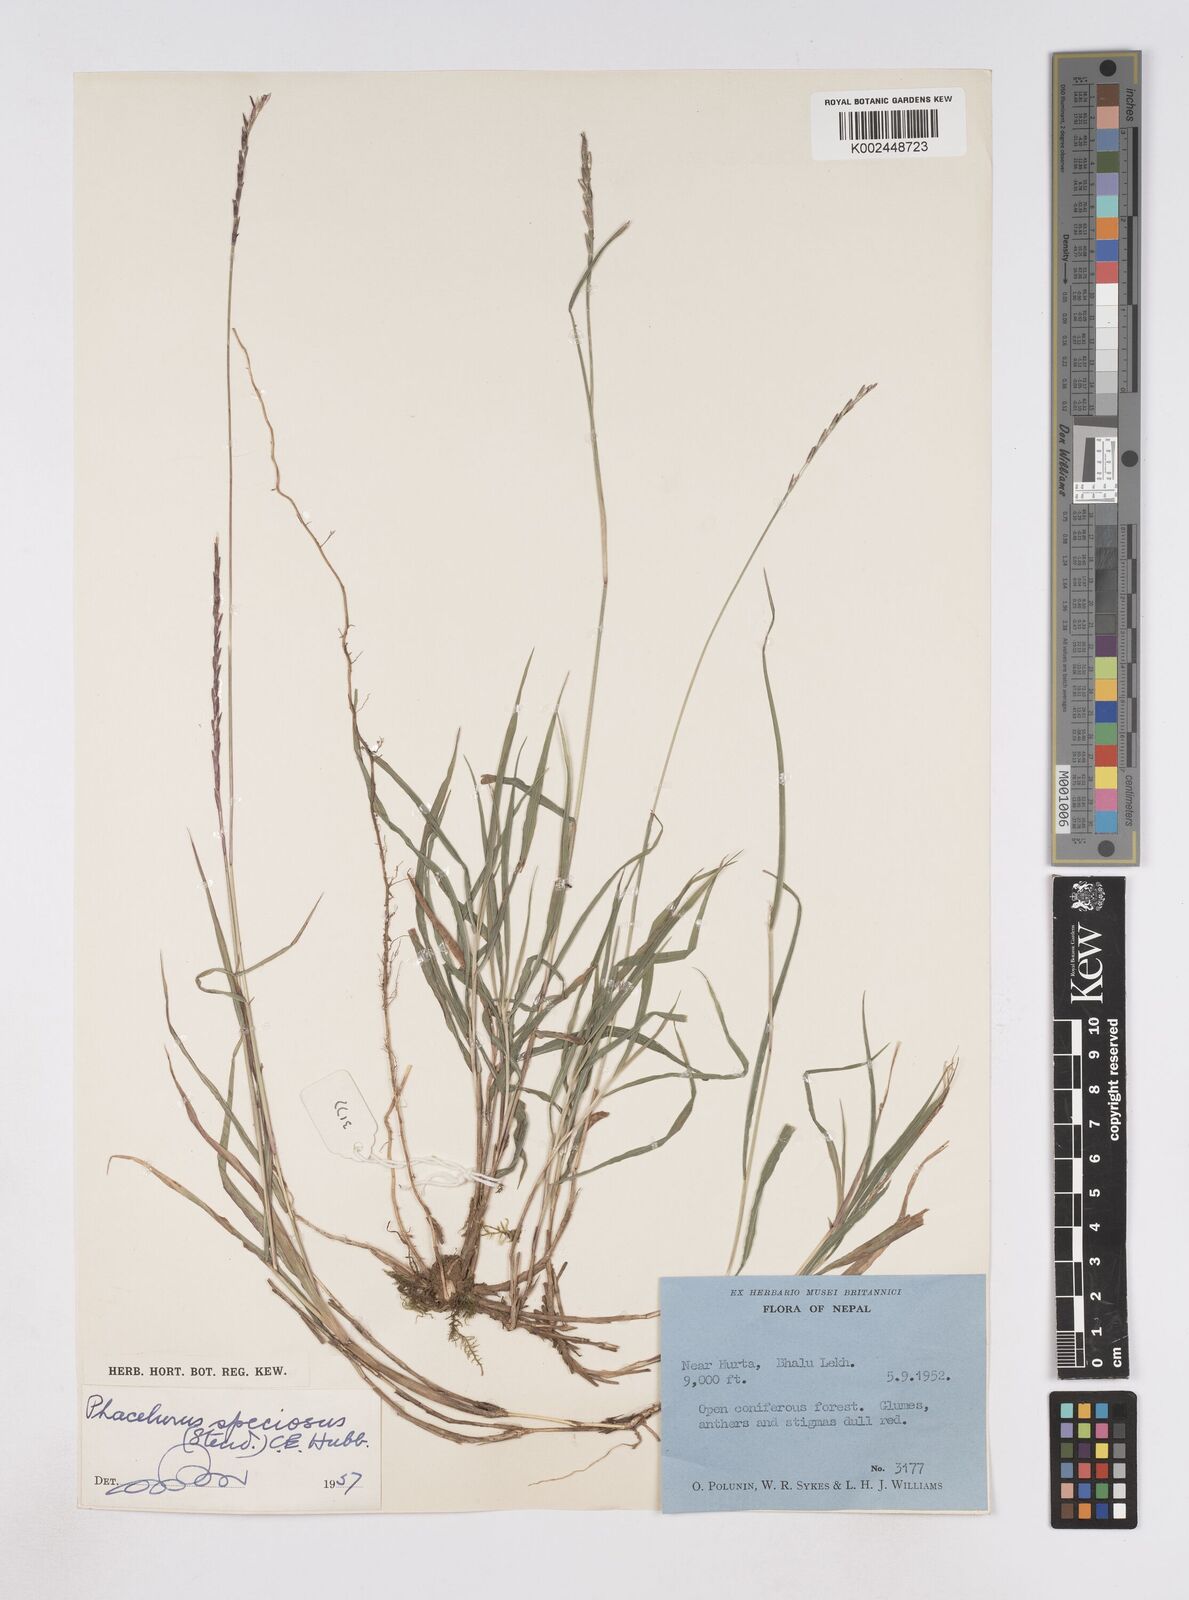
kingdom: Plantae
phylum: Tracheophyta
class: Liliopsida
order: Poales
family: Poaceae
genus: Phacelurus
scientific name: Phacelurus speciosus
